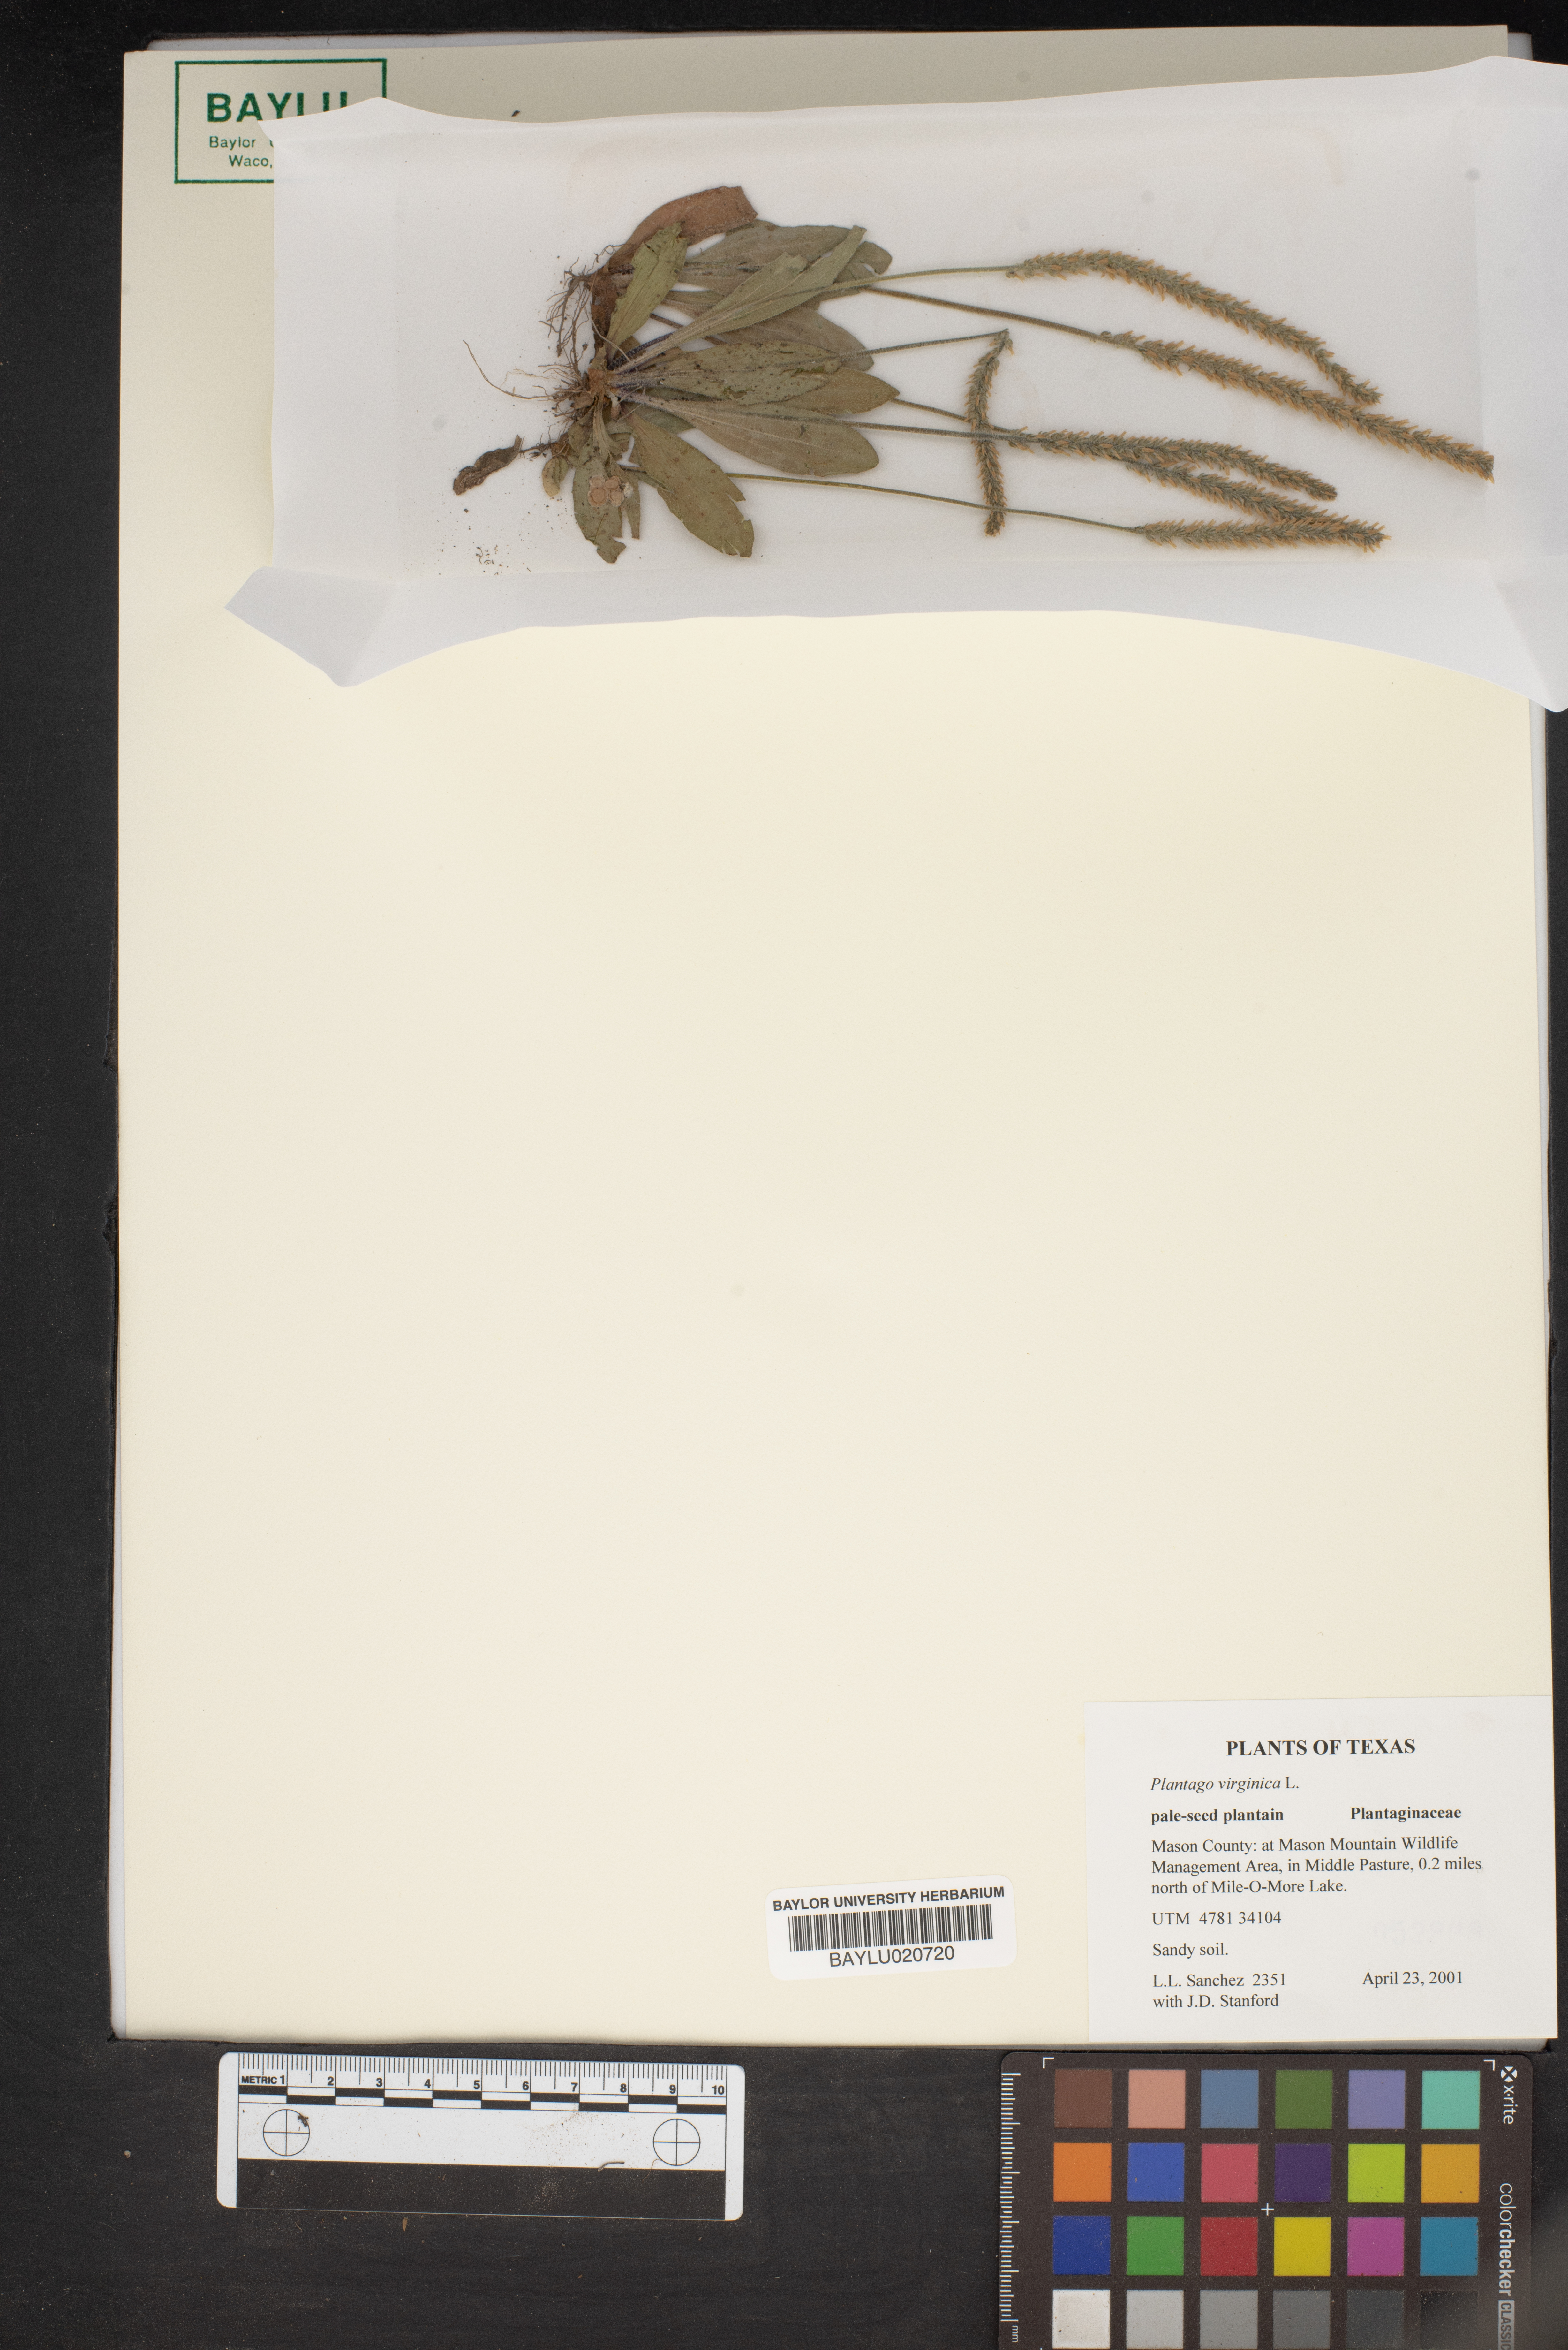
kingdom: Plantae
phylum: Tracheophyta
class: Magnoliopsida
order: Lamiales
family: Plantaginaceae
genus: Plantago
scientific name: Plantago virginica
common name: Hoary plantain
